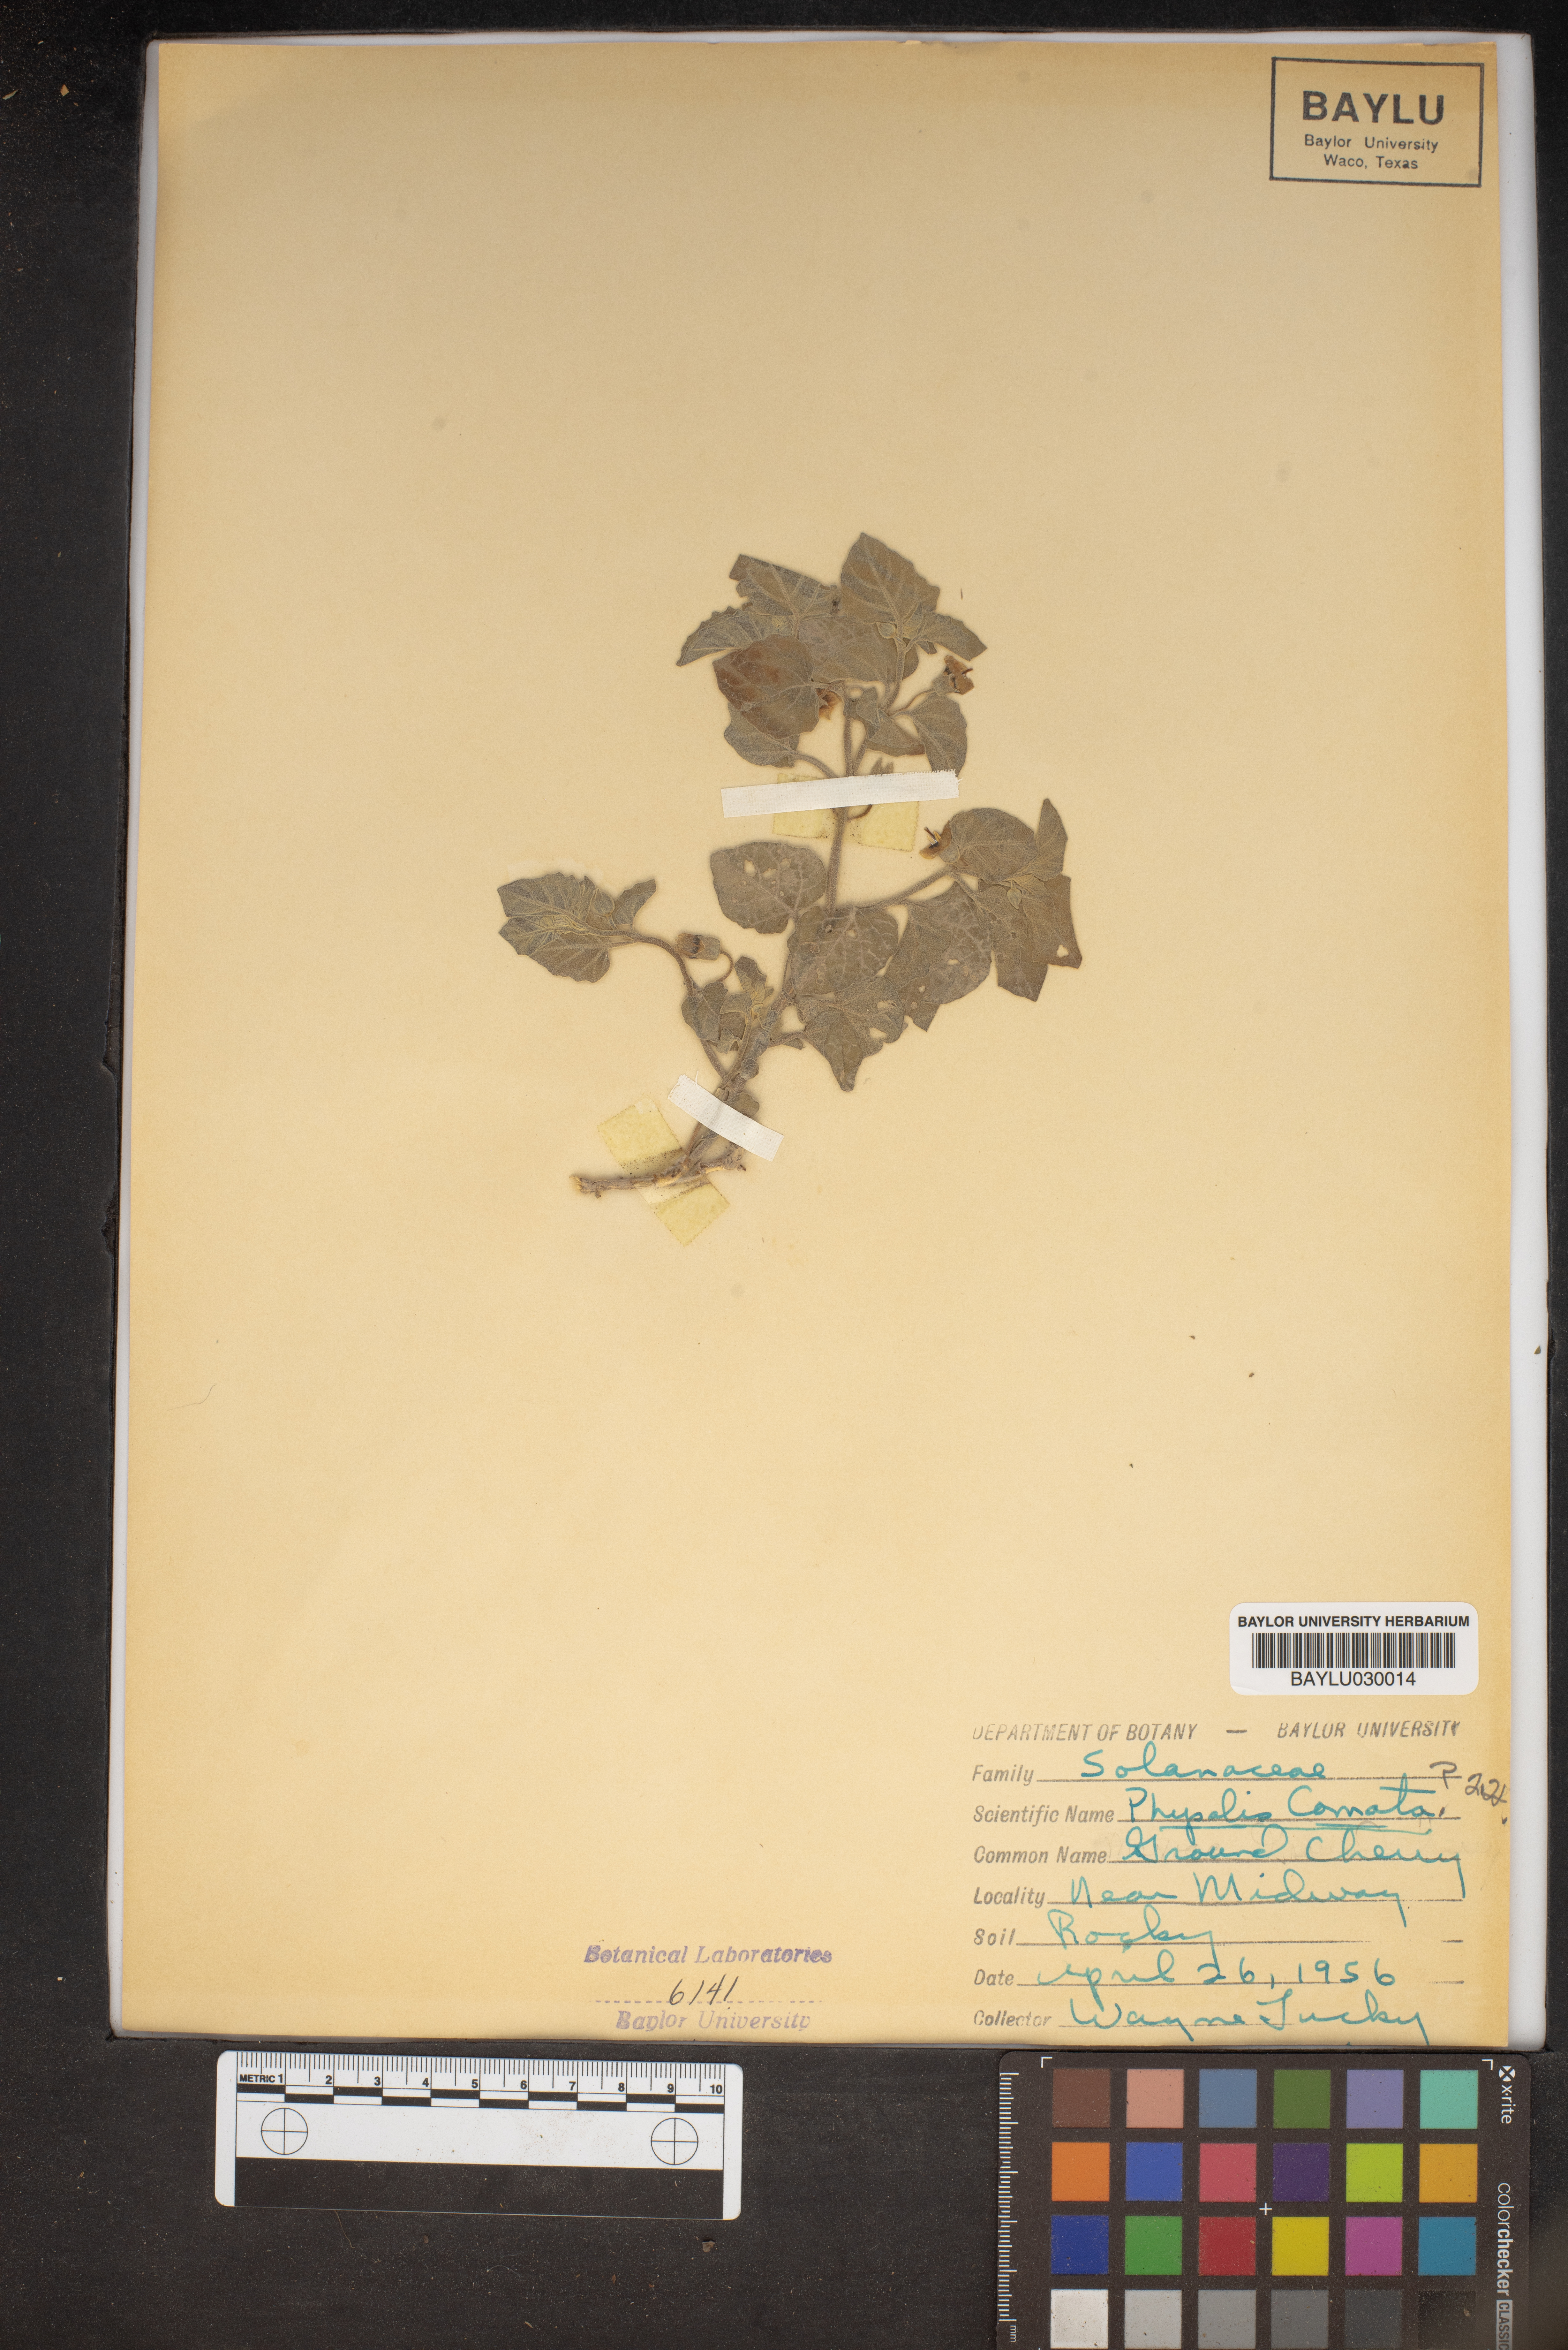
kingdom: Plantae
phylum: Tracheophyta
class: Magnoliopsida
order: Solanales
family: Solanaceae
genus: Physalis
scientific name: Physalis hederifolia
